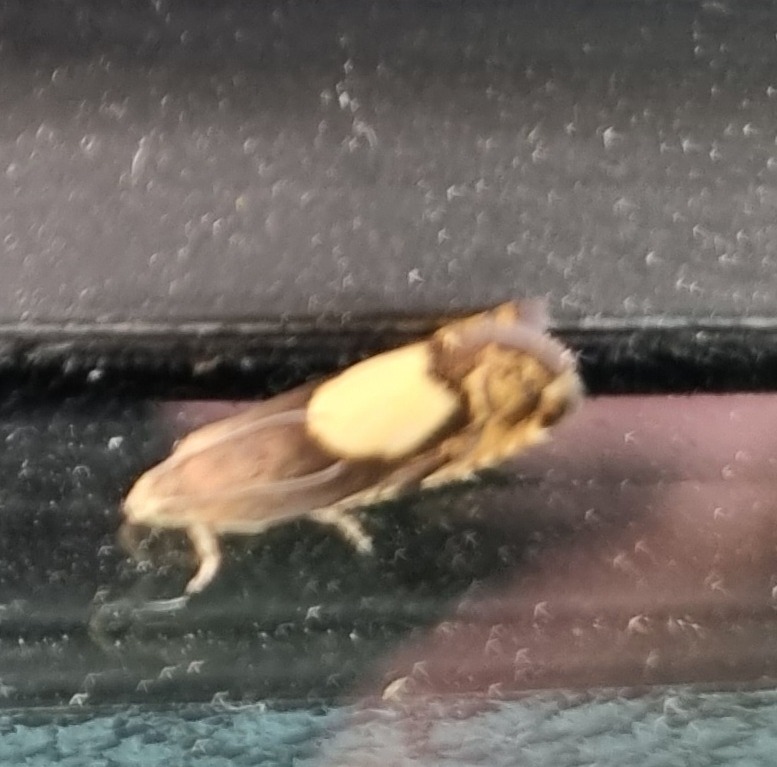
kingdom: Animalia
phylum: Arthropoda
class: Insecta
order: Lepidoptera
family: Tortricidae
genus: Pammene
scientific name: Pammene regiana
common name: Ahornsolvikler
